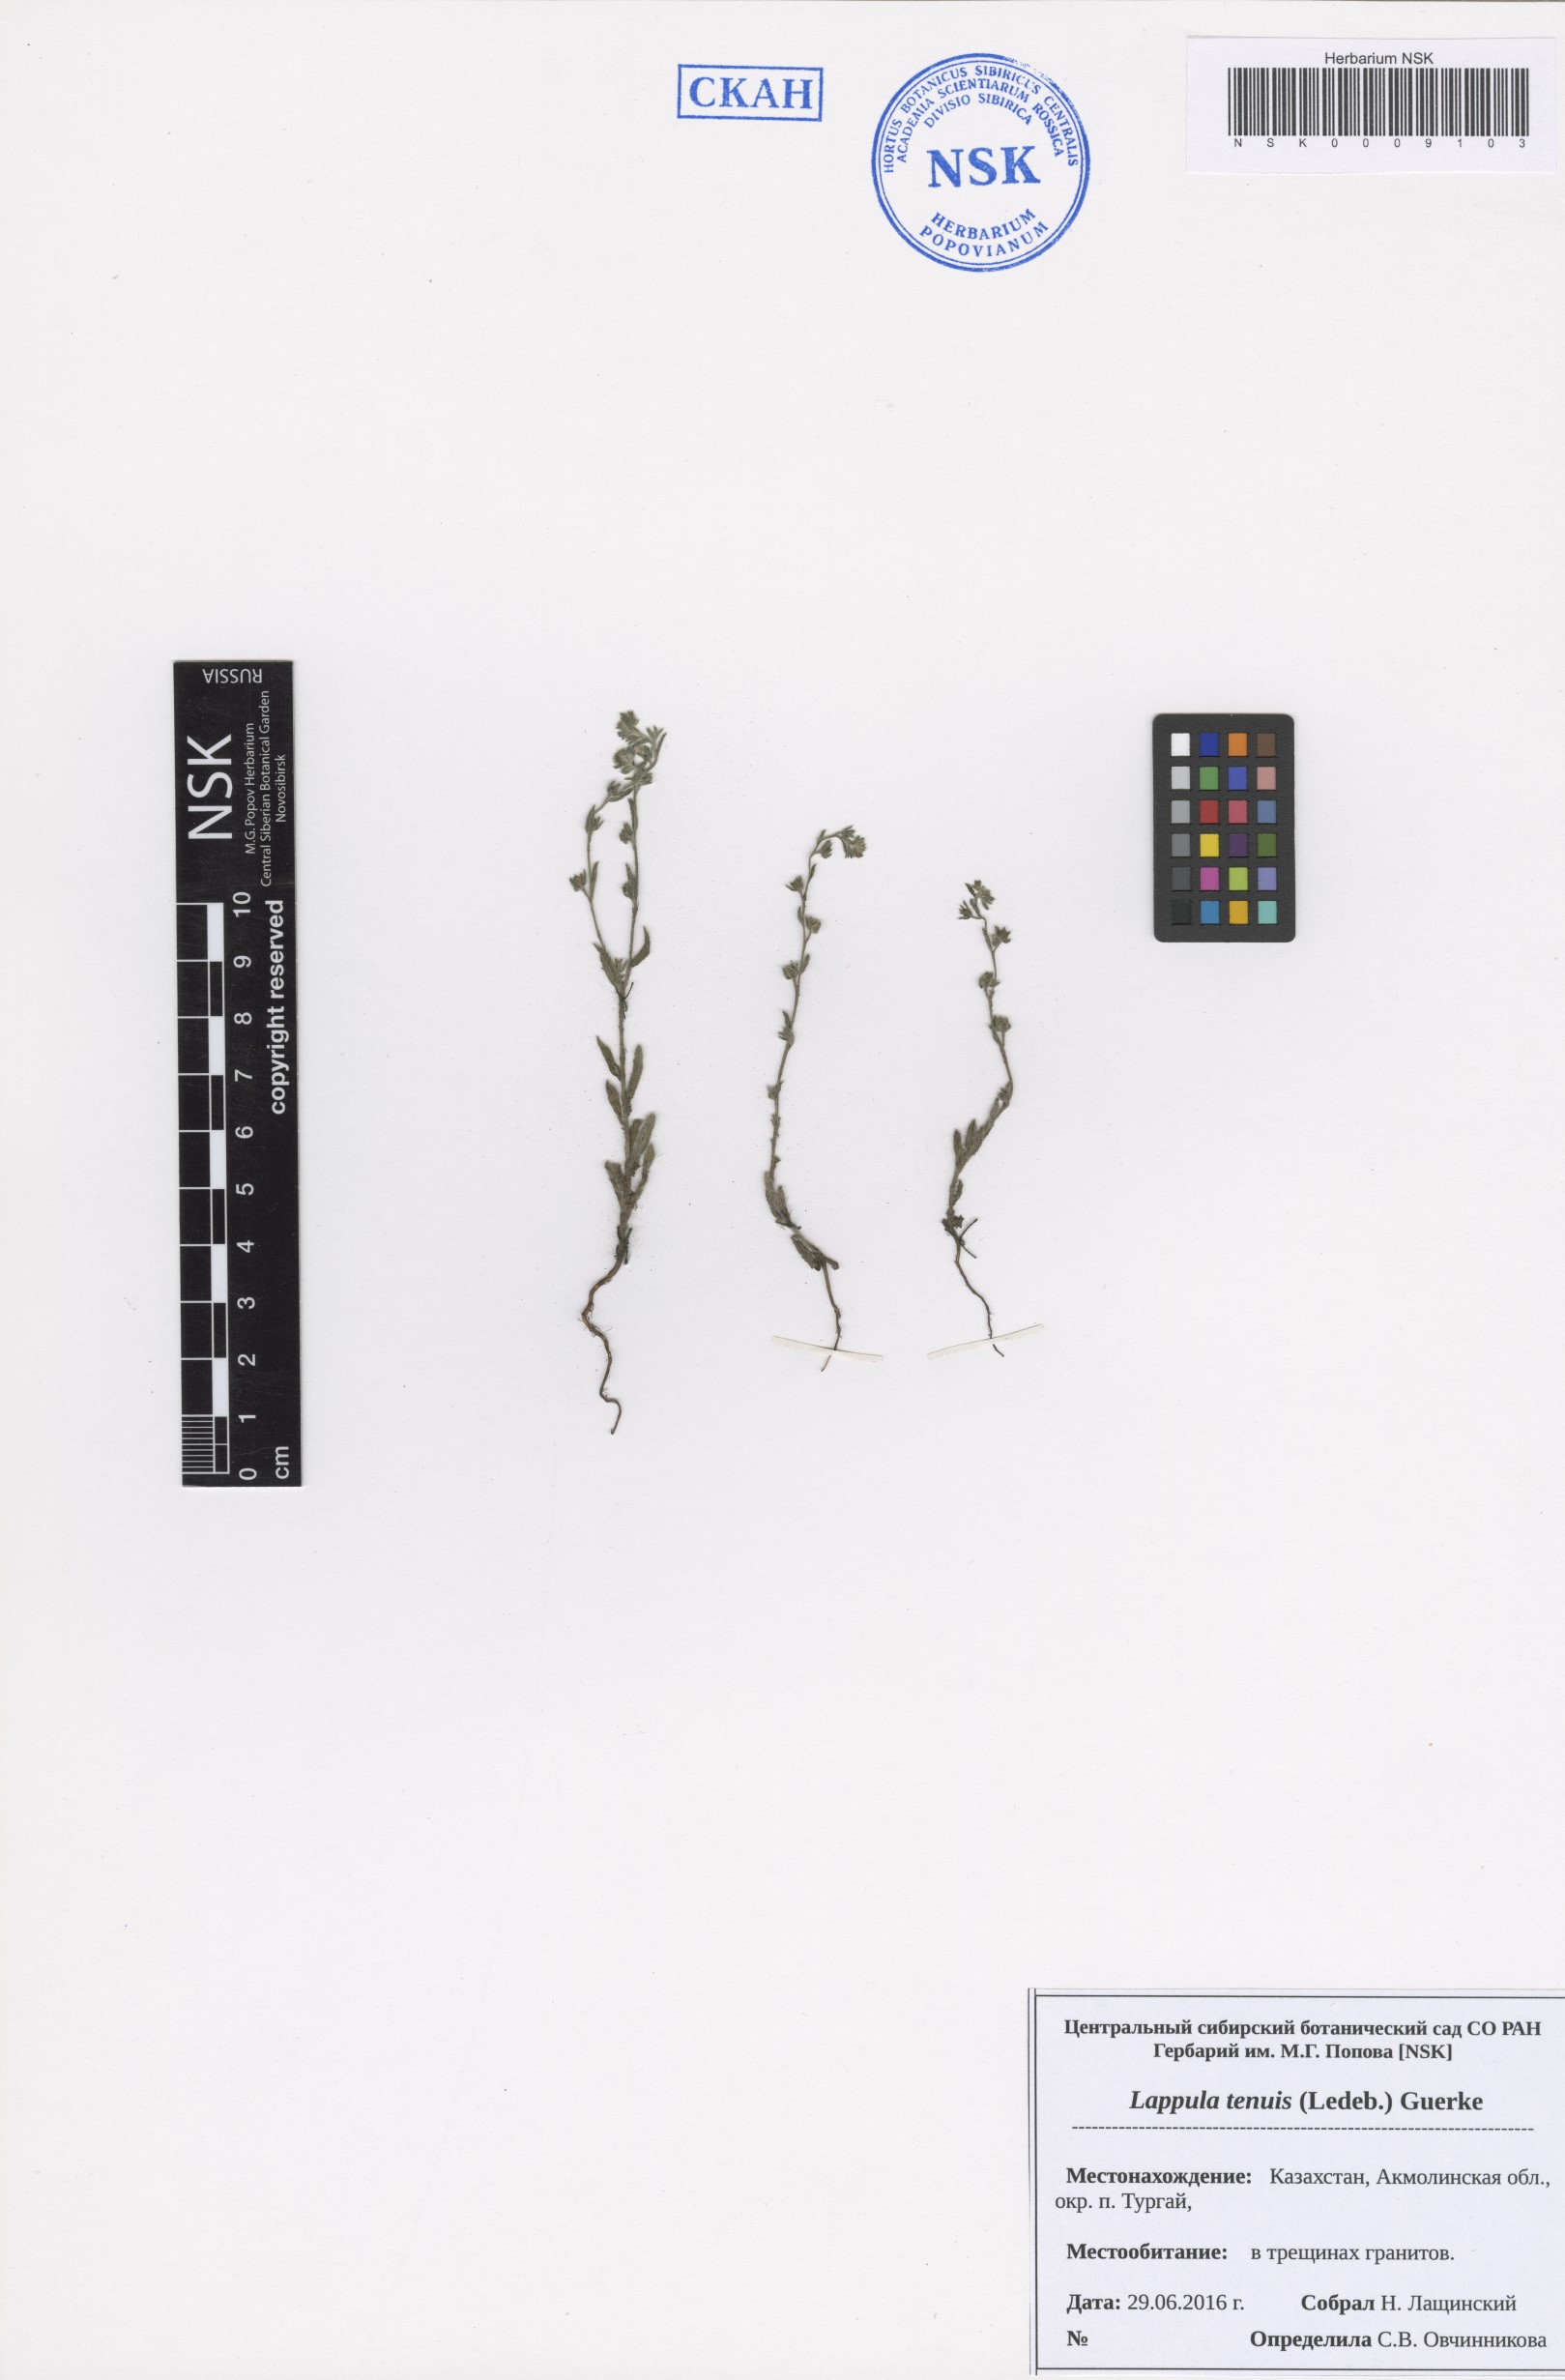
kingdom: Plantae
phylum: Tracheophyta
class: Magnoliopsida
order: Boraginales
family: Boraginaceae
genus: Lappula
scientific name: Lappula tenuis
